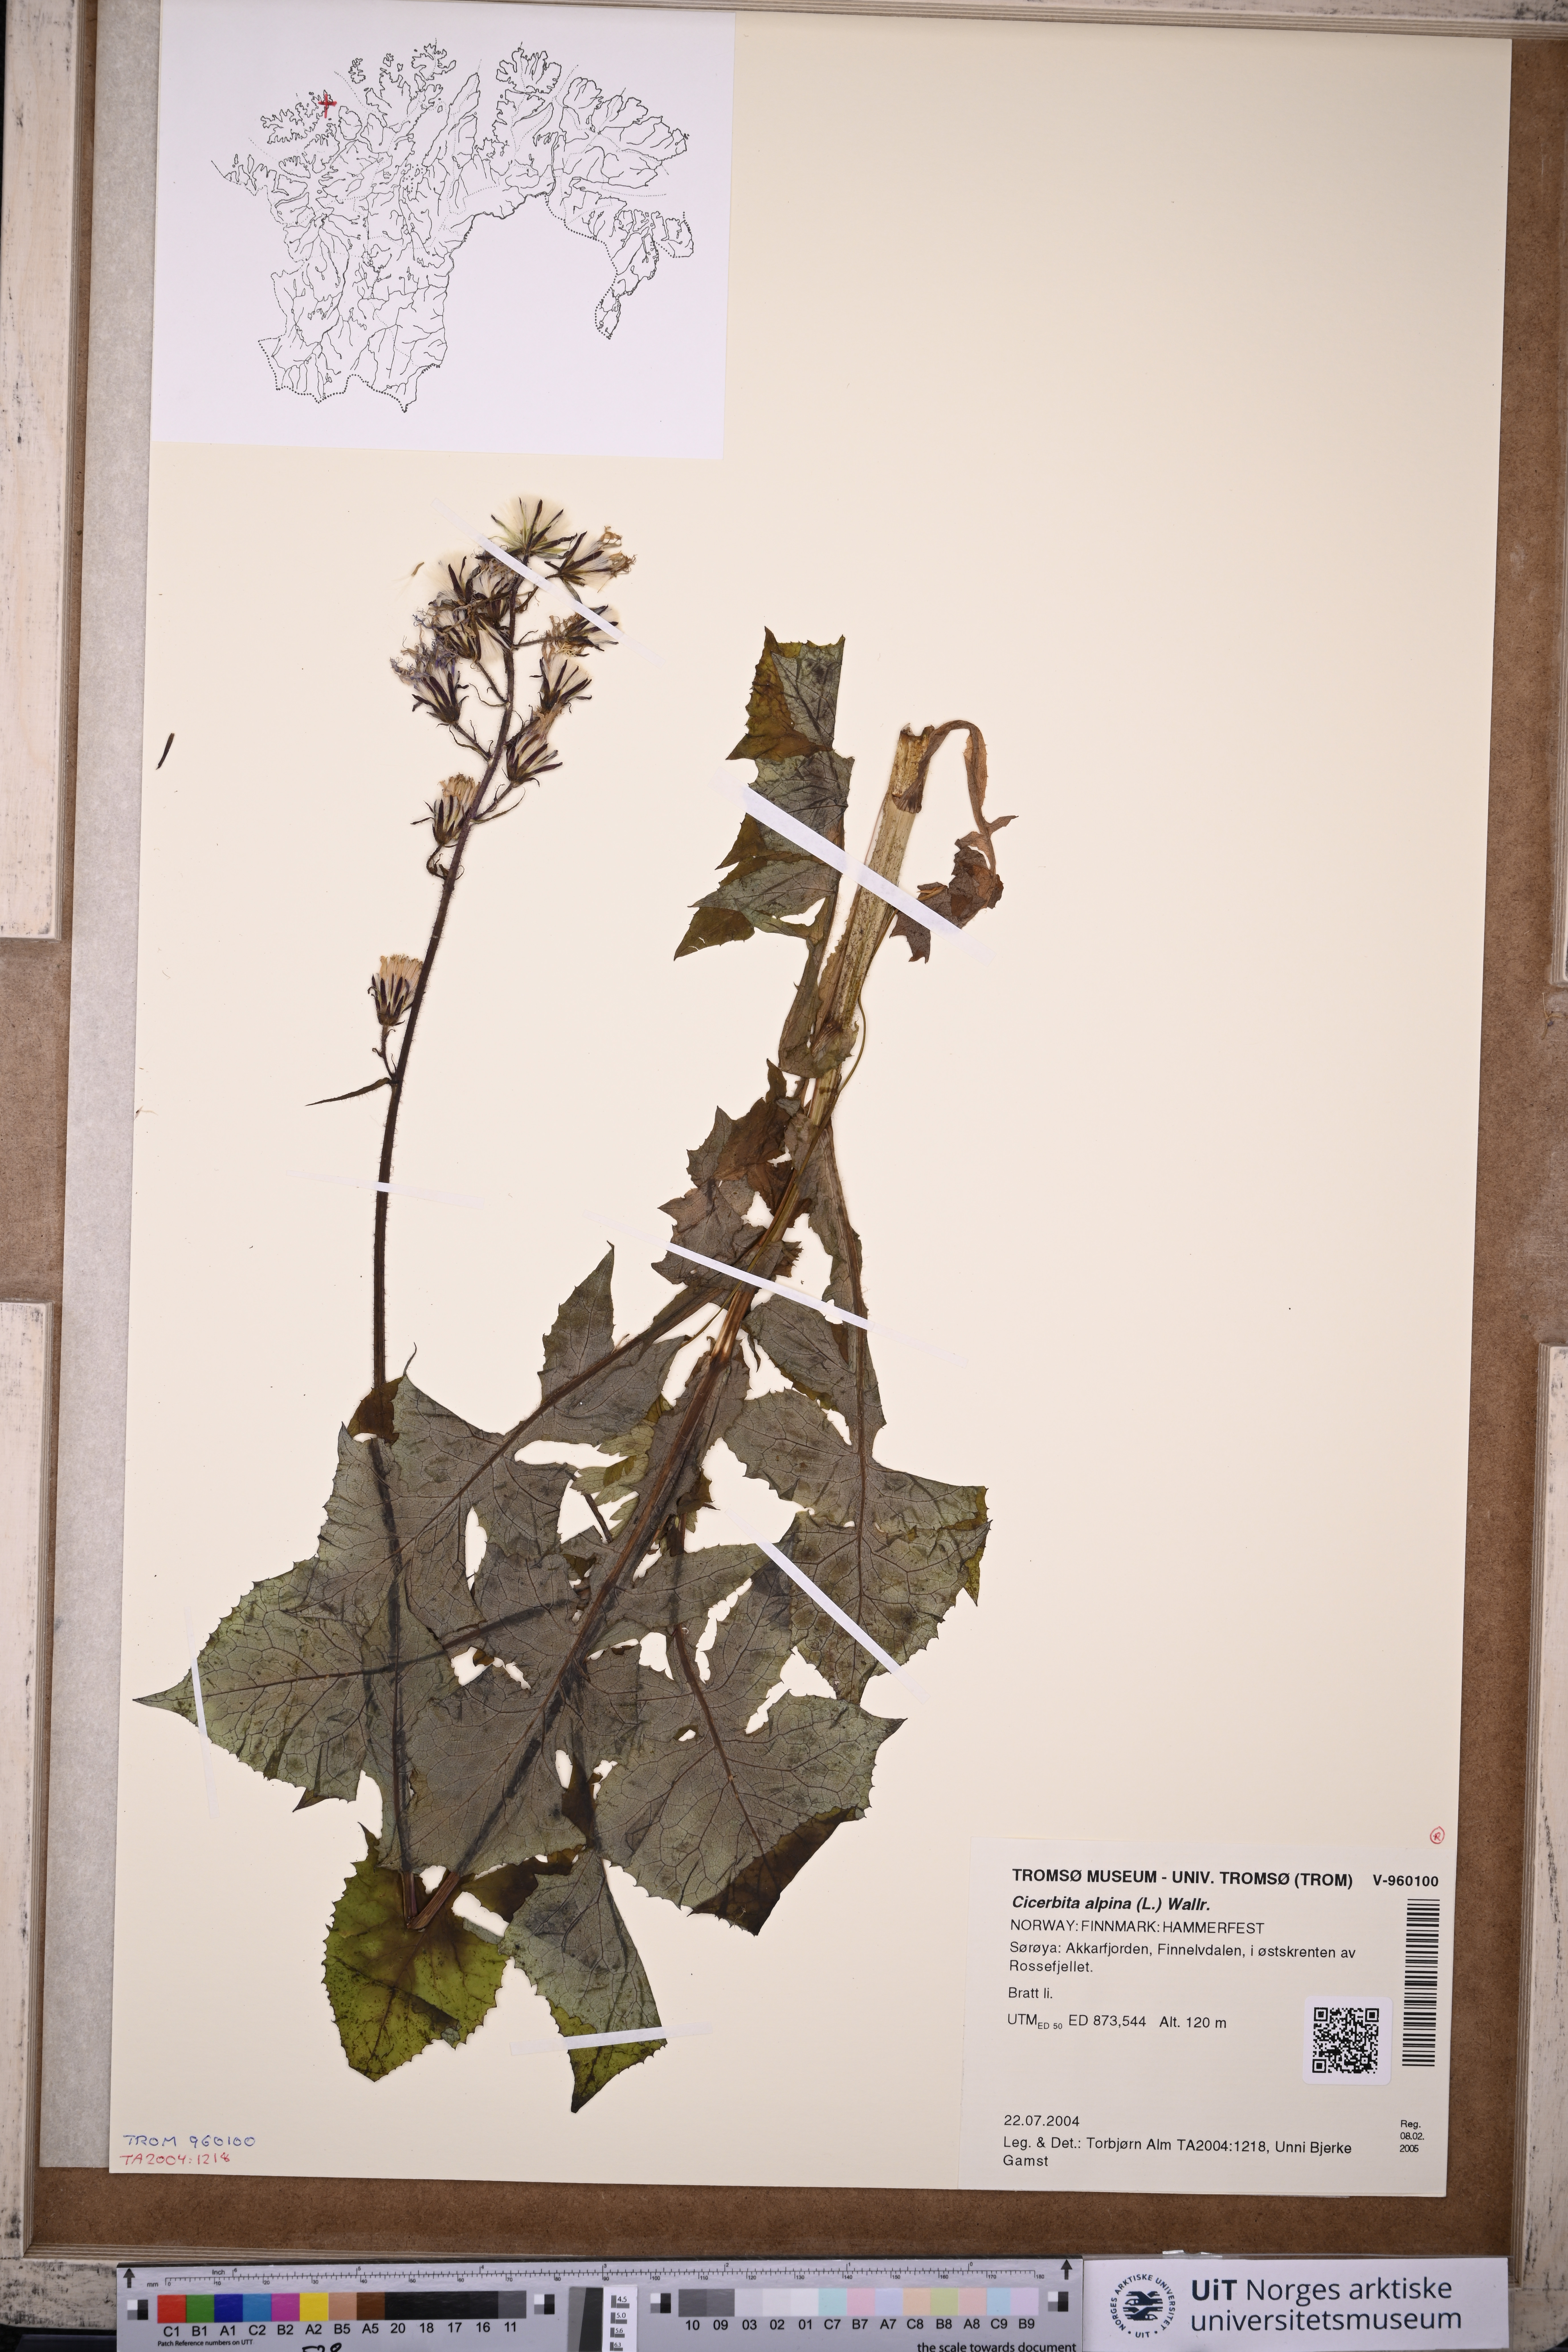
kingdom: Plantae
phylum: Tracheophyta
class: Magnoliopsida
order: Asterales
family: Asteraceae
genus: Cicerbita
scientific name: Cicerbita alpina
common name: Alpine blue-sow-thistle
